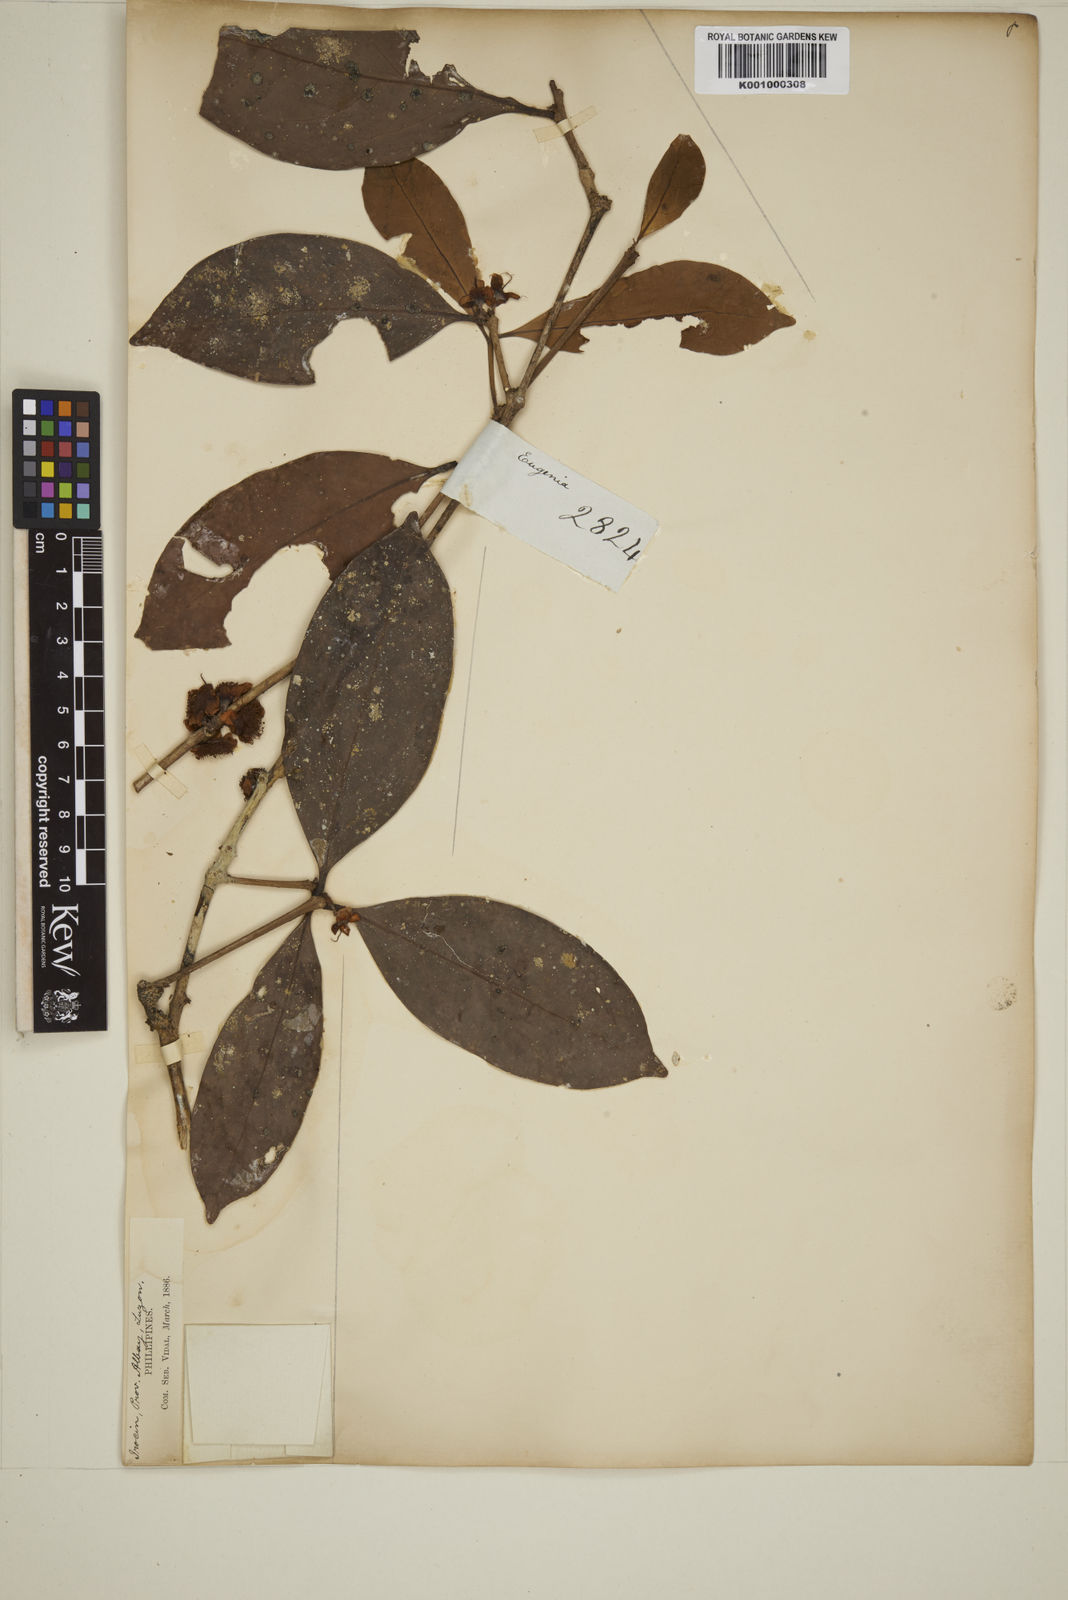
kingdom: Plantae
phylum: Tracheophyta
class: Magnoliopsida
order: Myrtales
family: Myrtaceae
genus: Eugenia
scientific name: Eugenia tulanan
